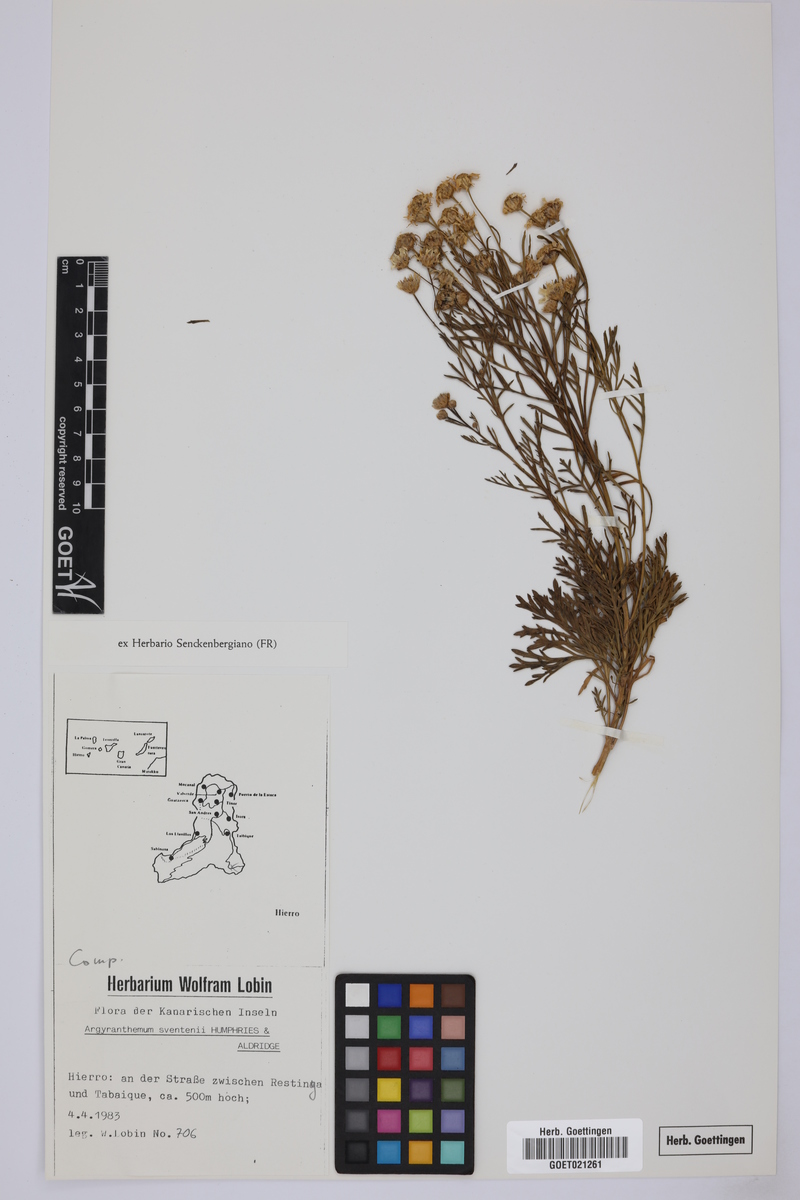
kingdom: Plantae
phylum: Tracheophyta
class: Magnoliopsida
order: Asterales
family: Asteraceae
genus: Argyranthemum
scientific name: Argyranthemum sventenii
